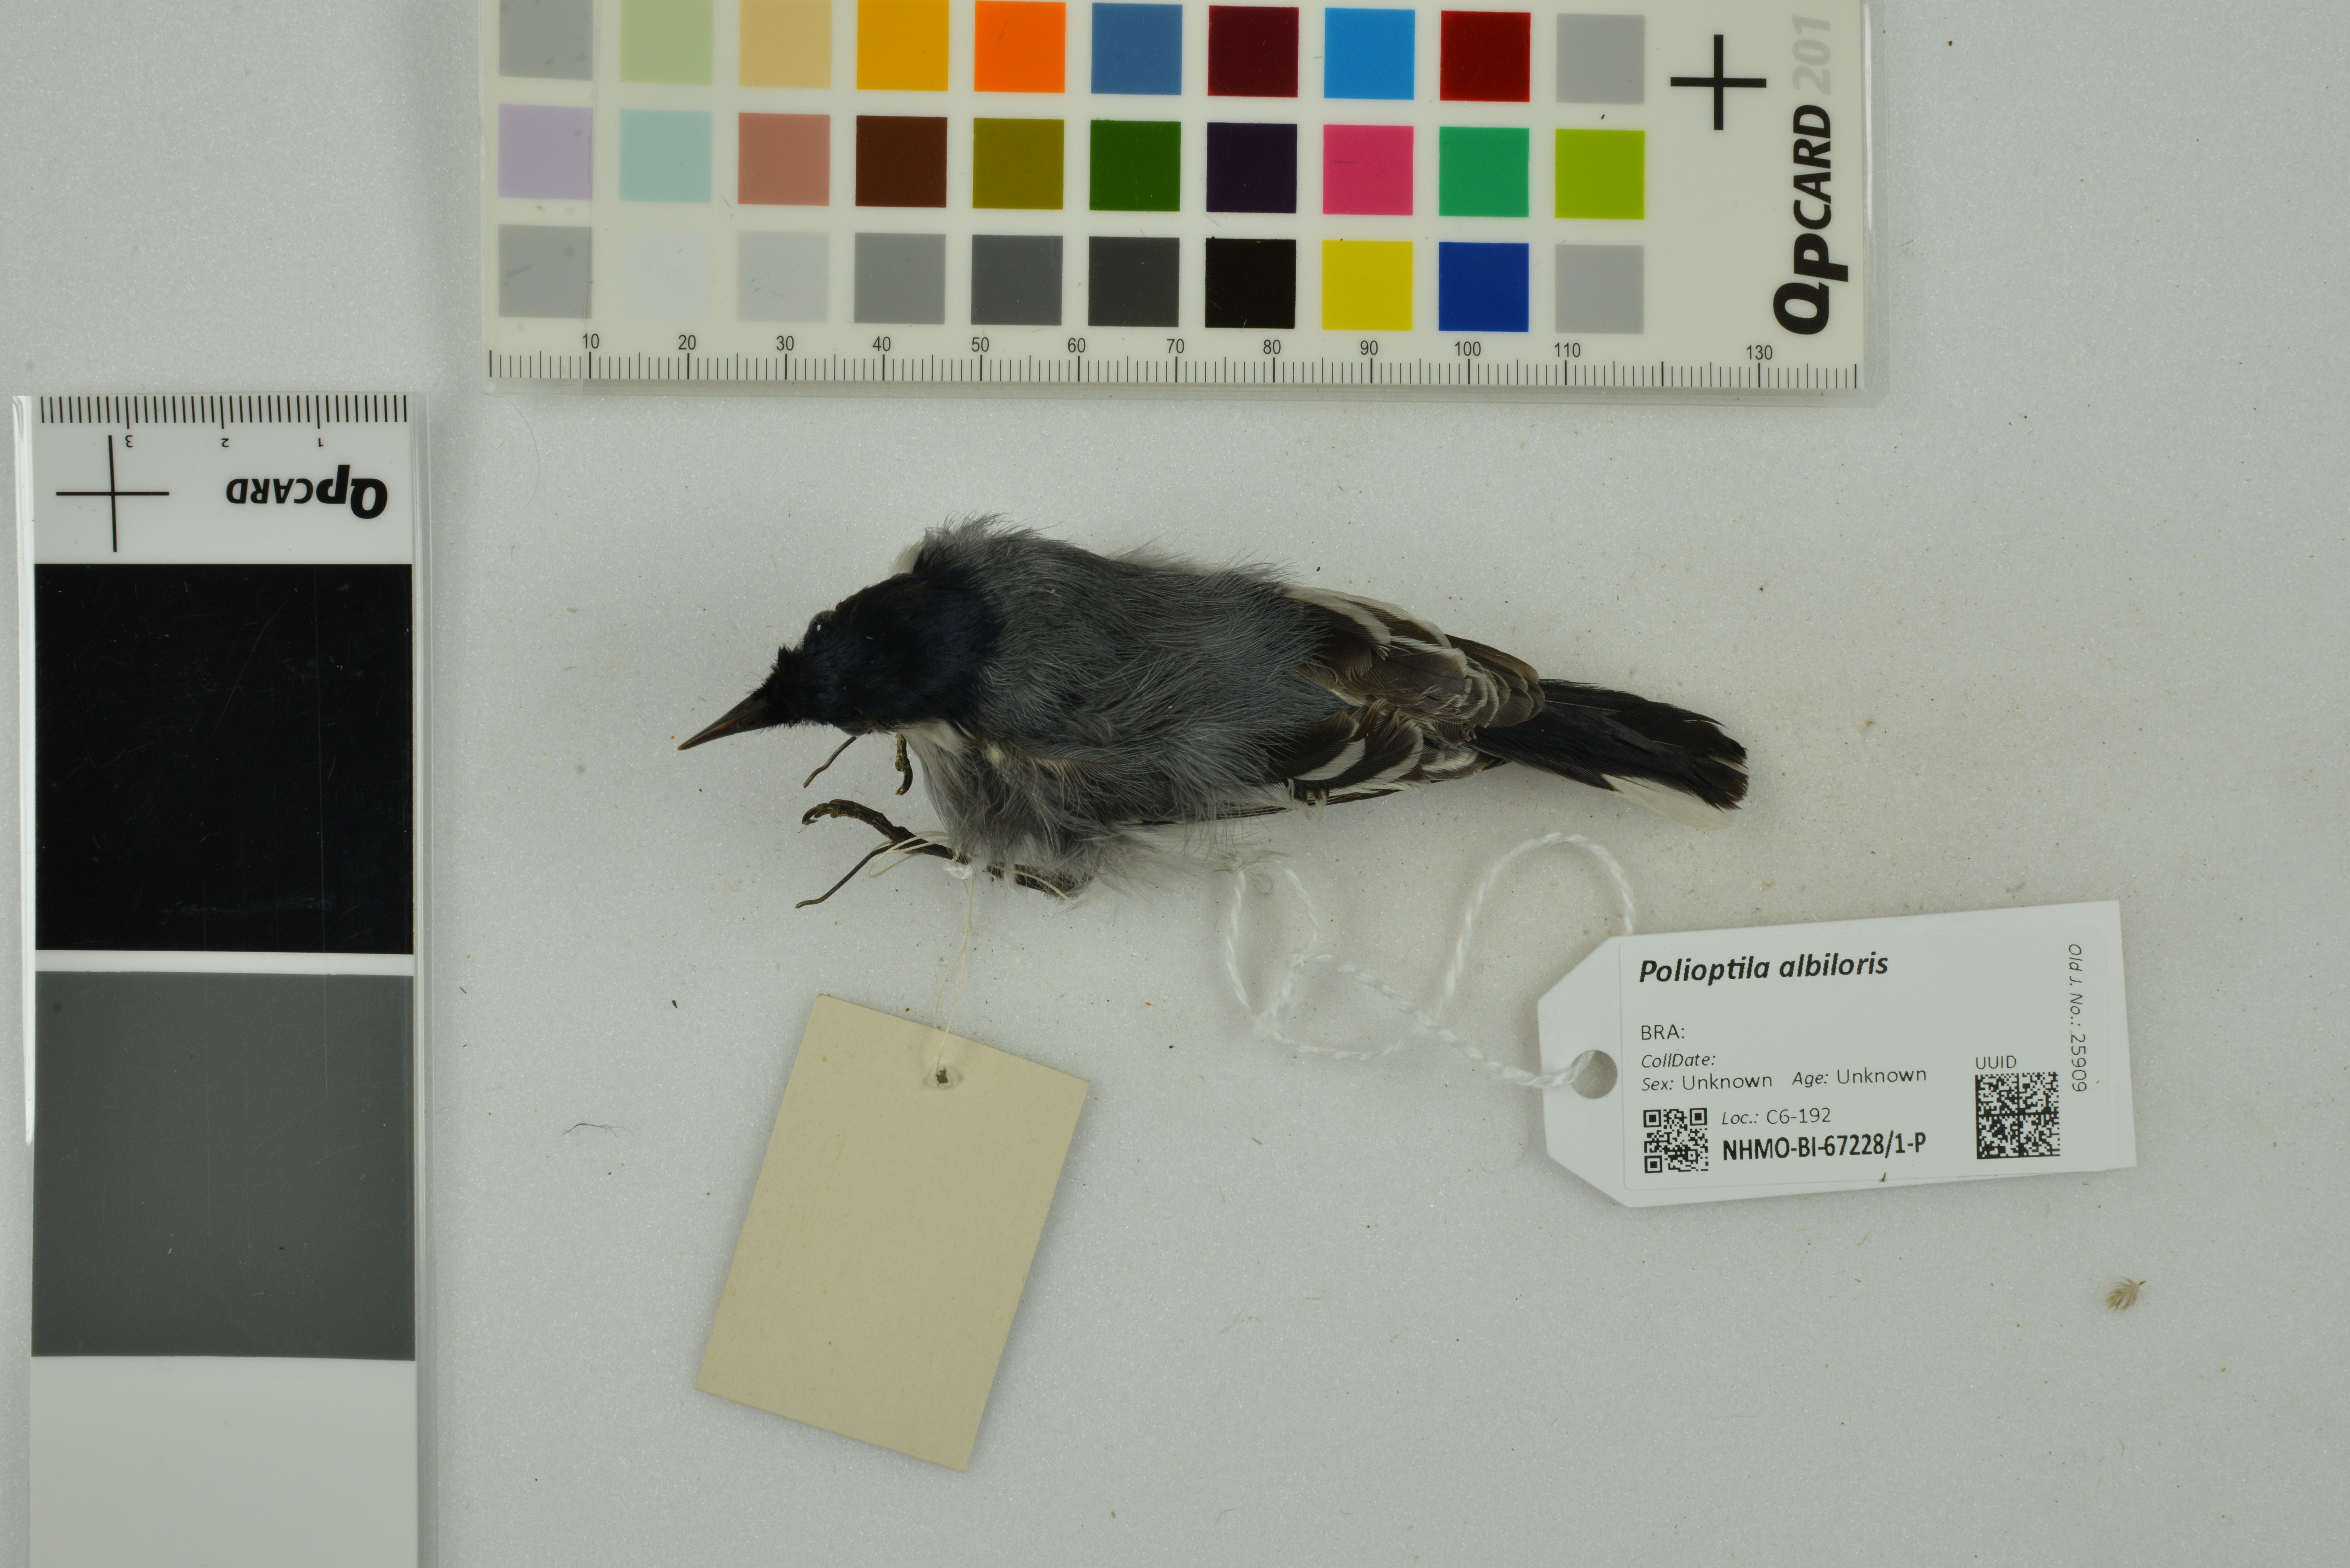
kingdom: Animalia
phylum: Chordata
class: Aves
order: Passeriformes
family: Polioptilidae
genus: Polioptila
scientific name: Polioptila albiloris
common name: White-lored gnatcatcher
